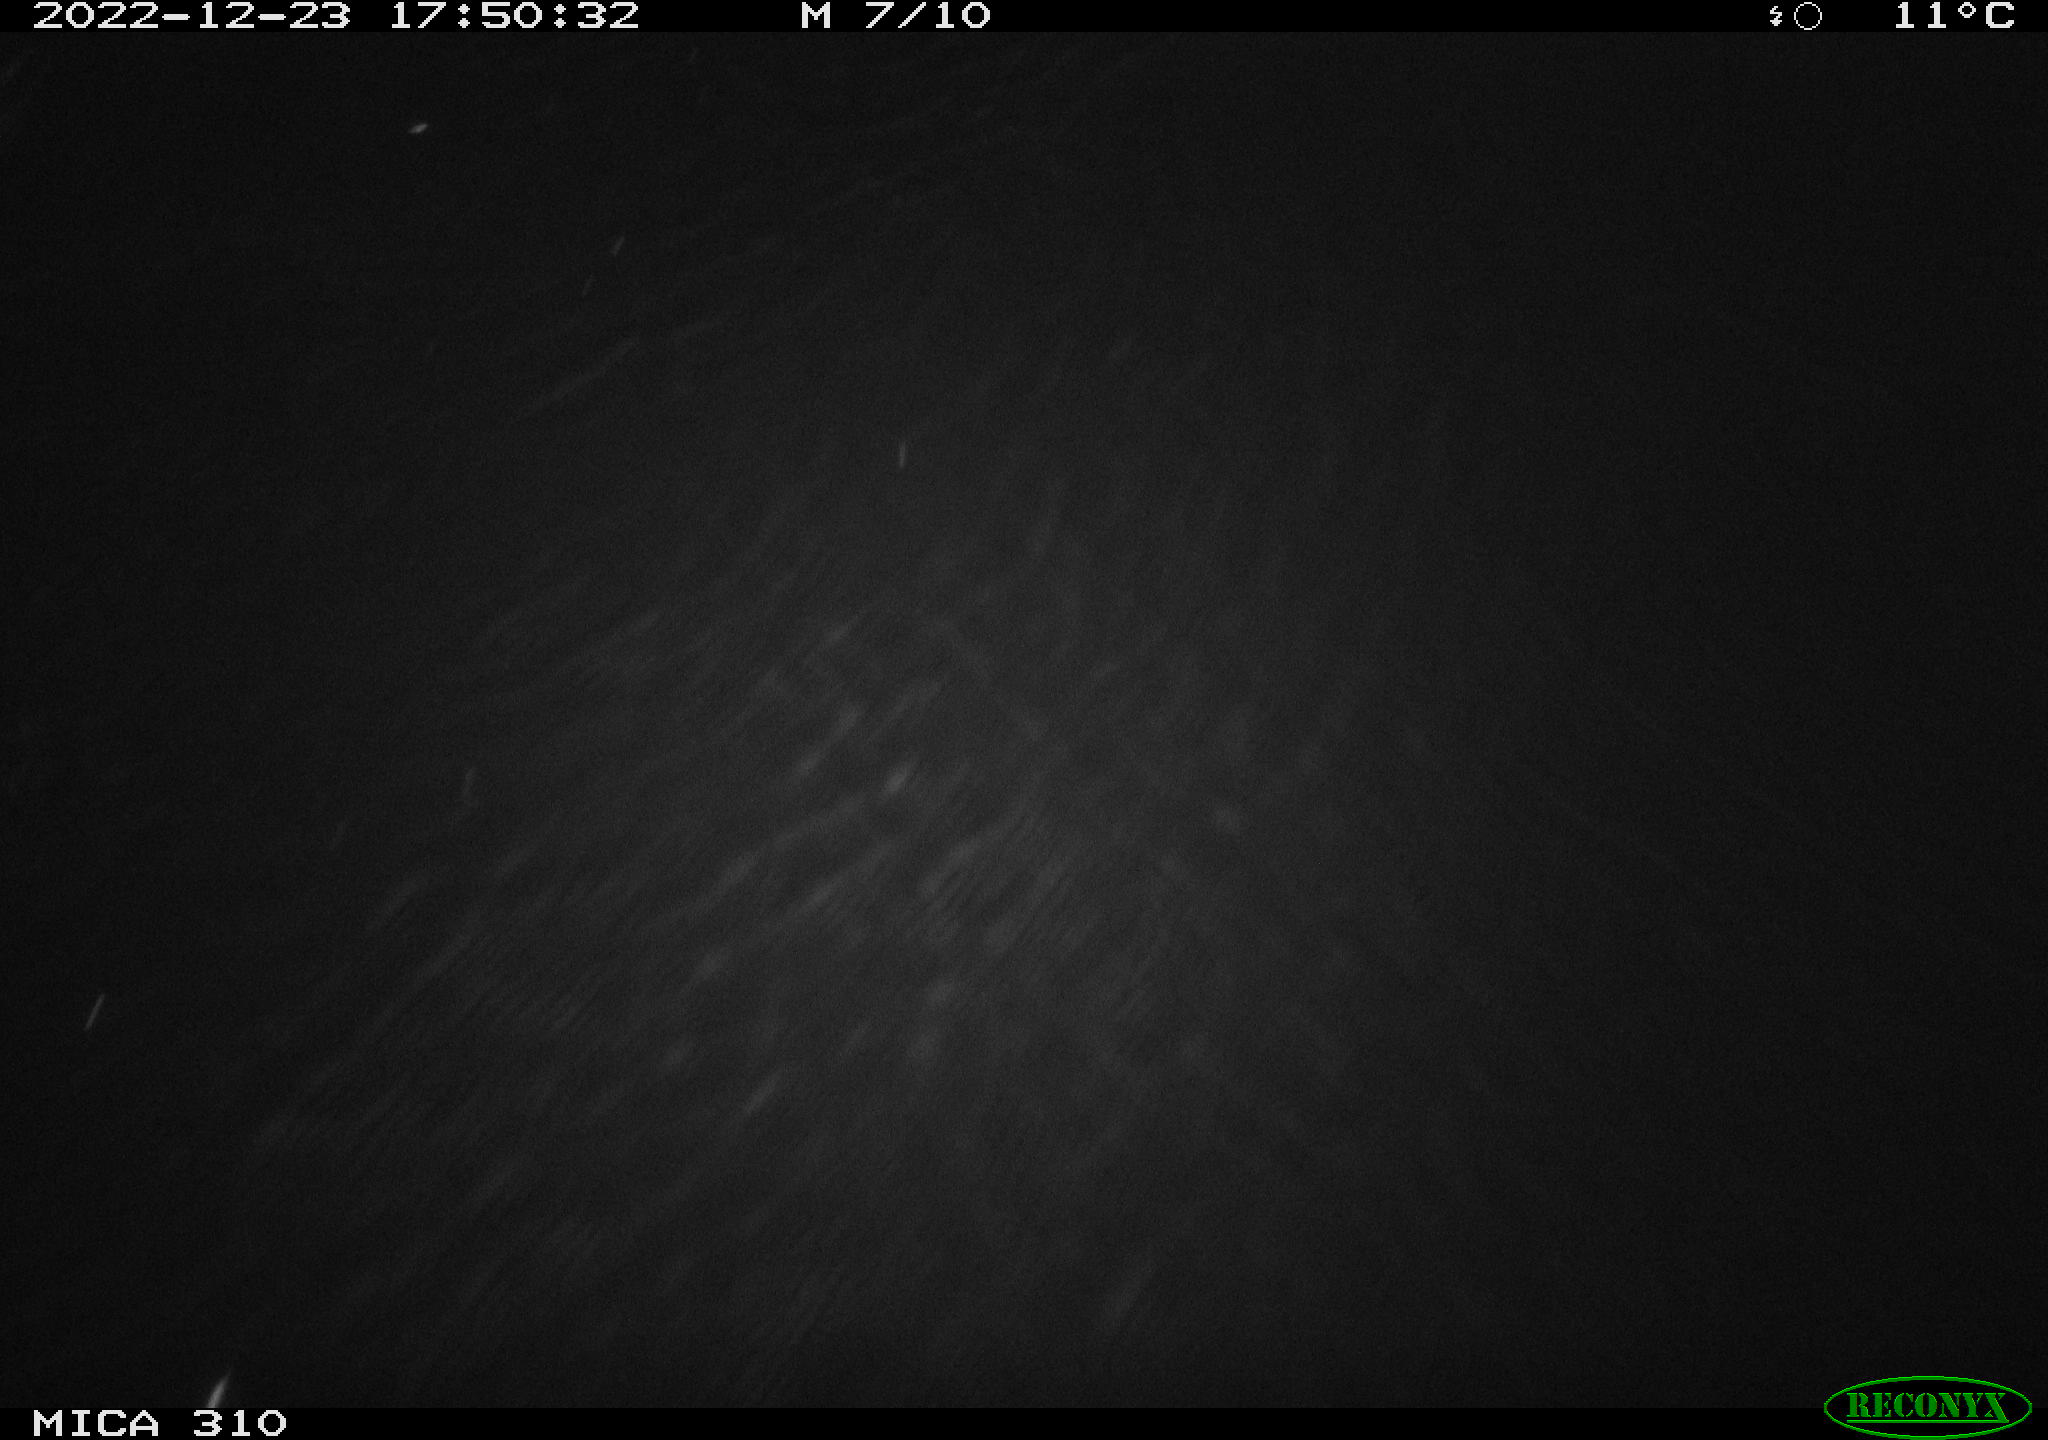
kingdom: Animalia
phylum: Chordata
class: Mammalia
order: Rodentia
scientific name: Rodentia
